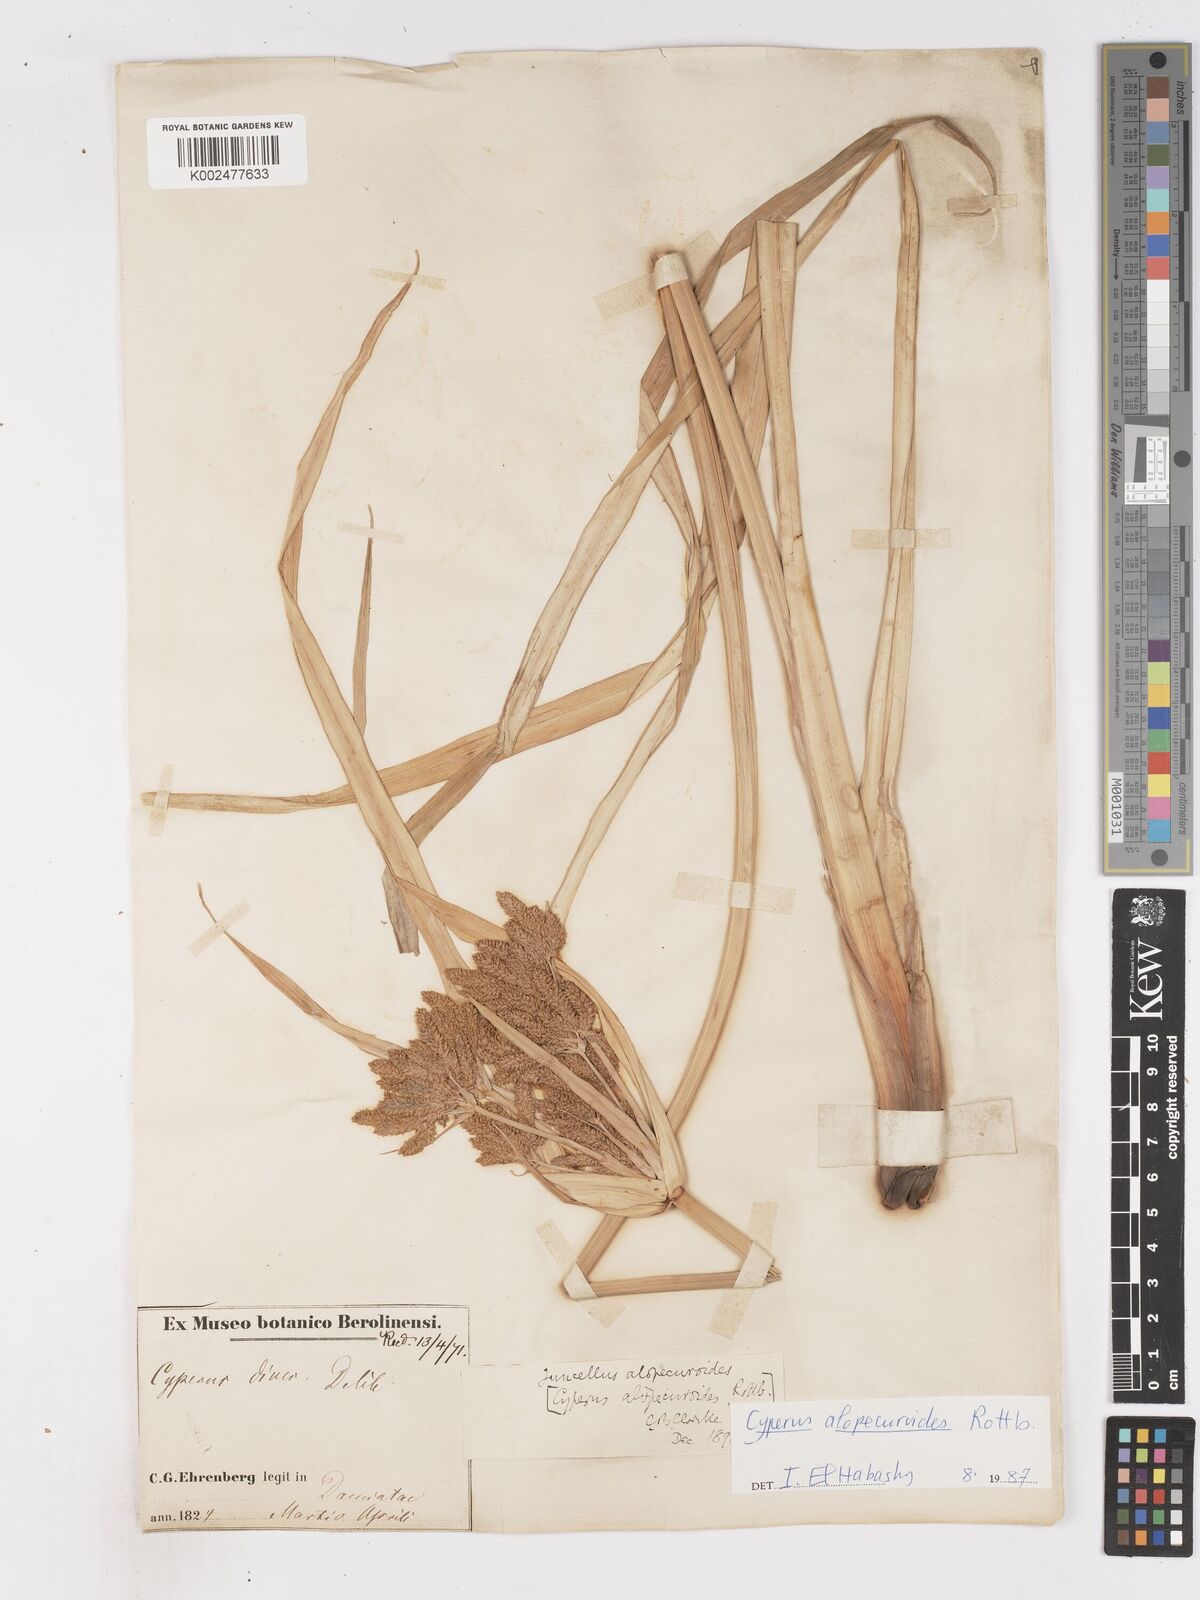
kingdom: Plantae
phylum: Tracheophyta
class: Liliopsida
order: Poales
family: Cyperaceae
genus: Cyperus
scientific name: Cyperus alopecuroides
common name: Foxtail flatsedge
